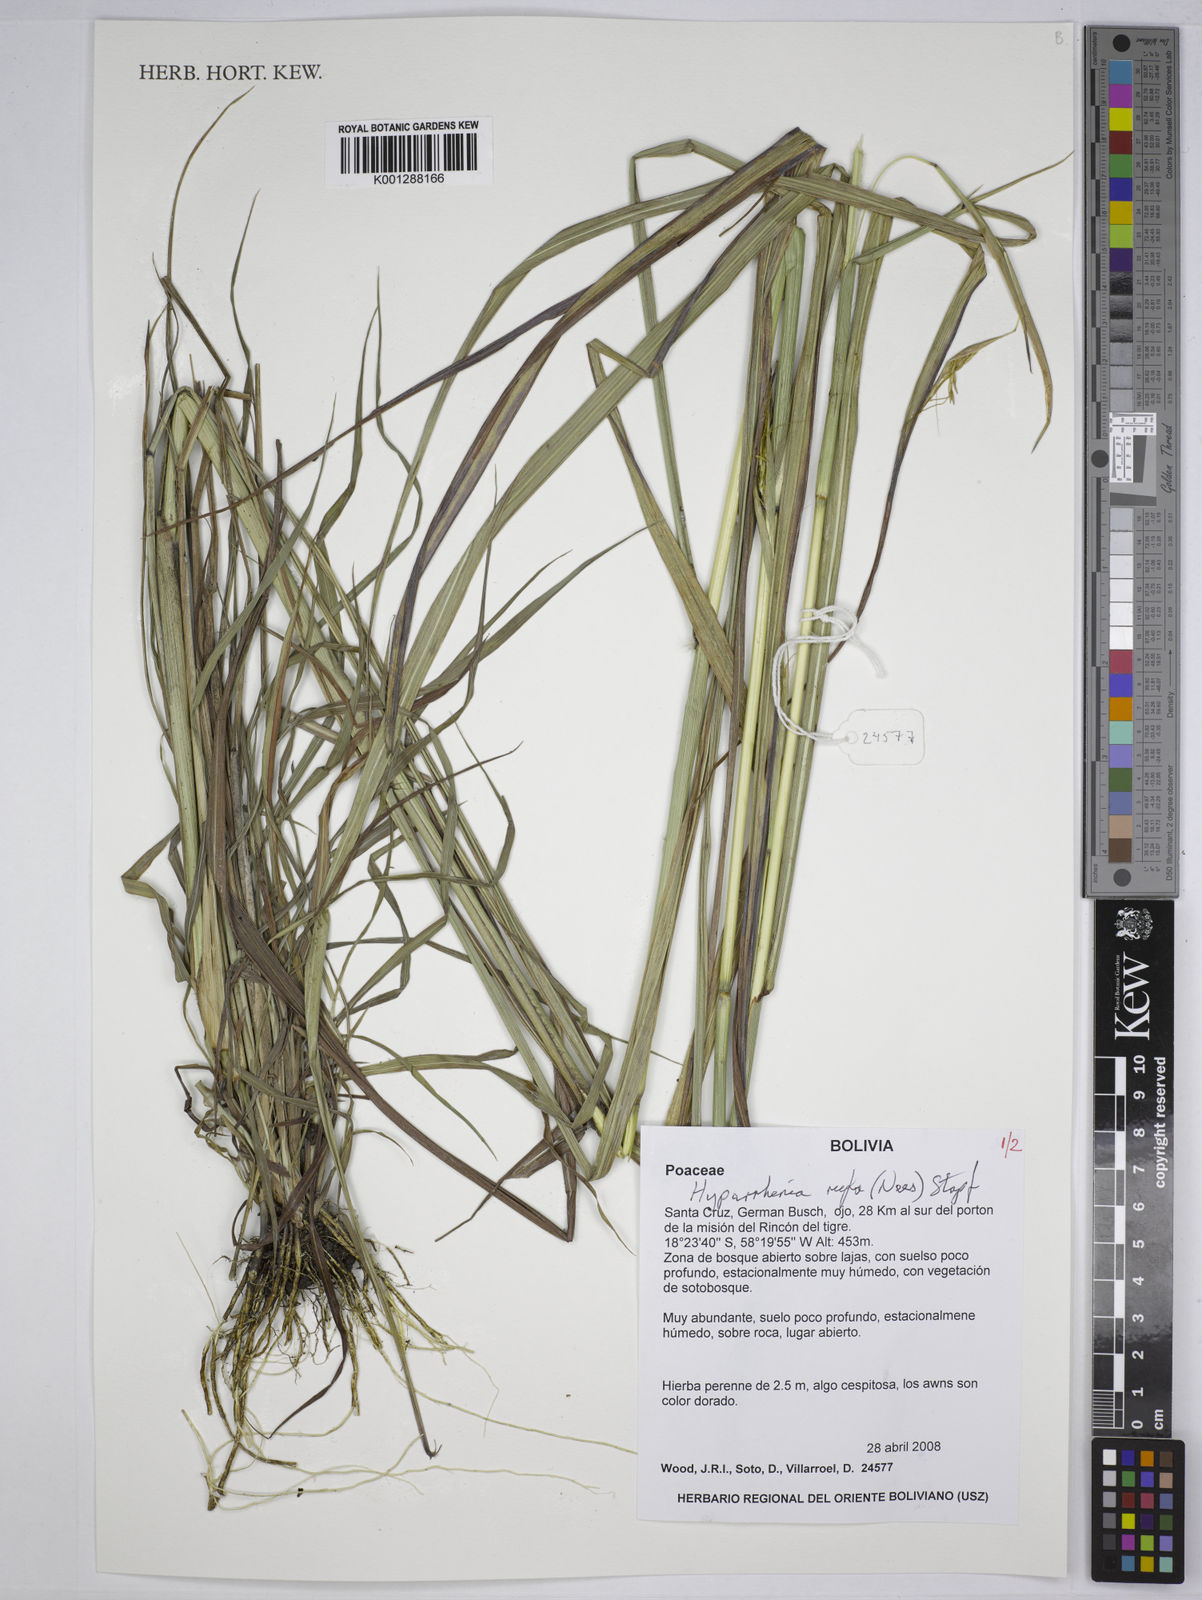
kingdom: Plantae
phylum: Tracheophyta
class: Liliopsida
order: Poales
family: Poaceae
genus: Hyparrhenia
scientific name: Hyparrhenia rufa
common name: Jaraguagrass
